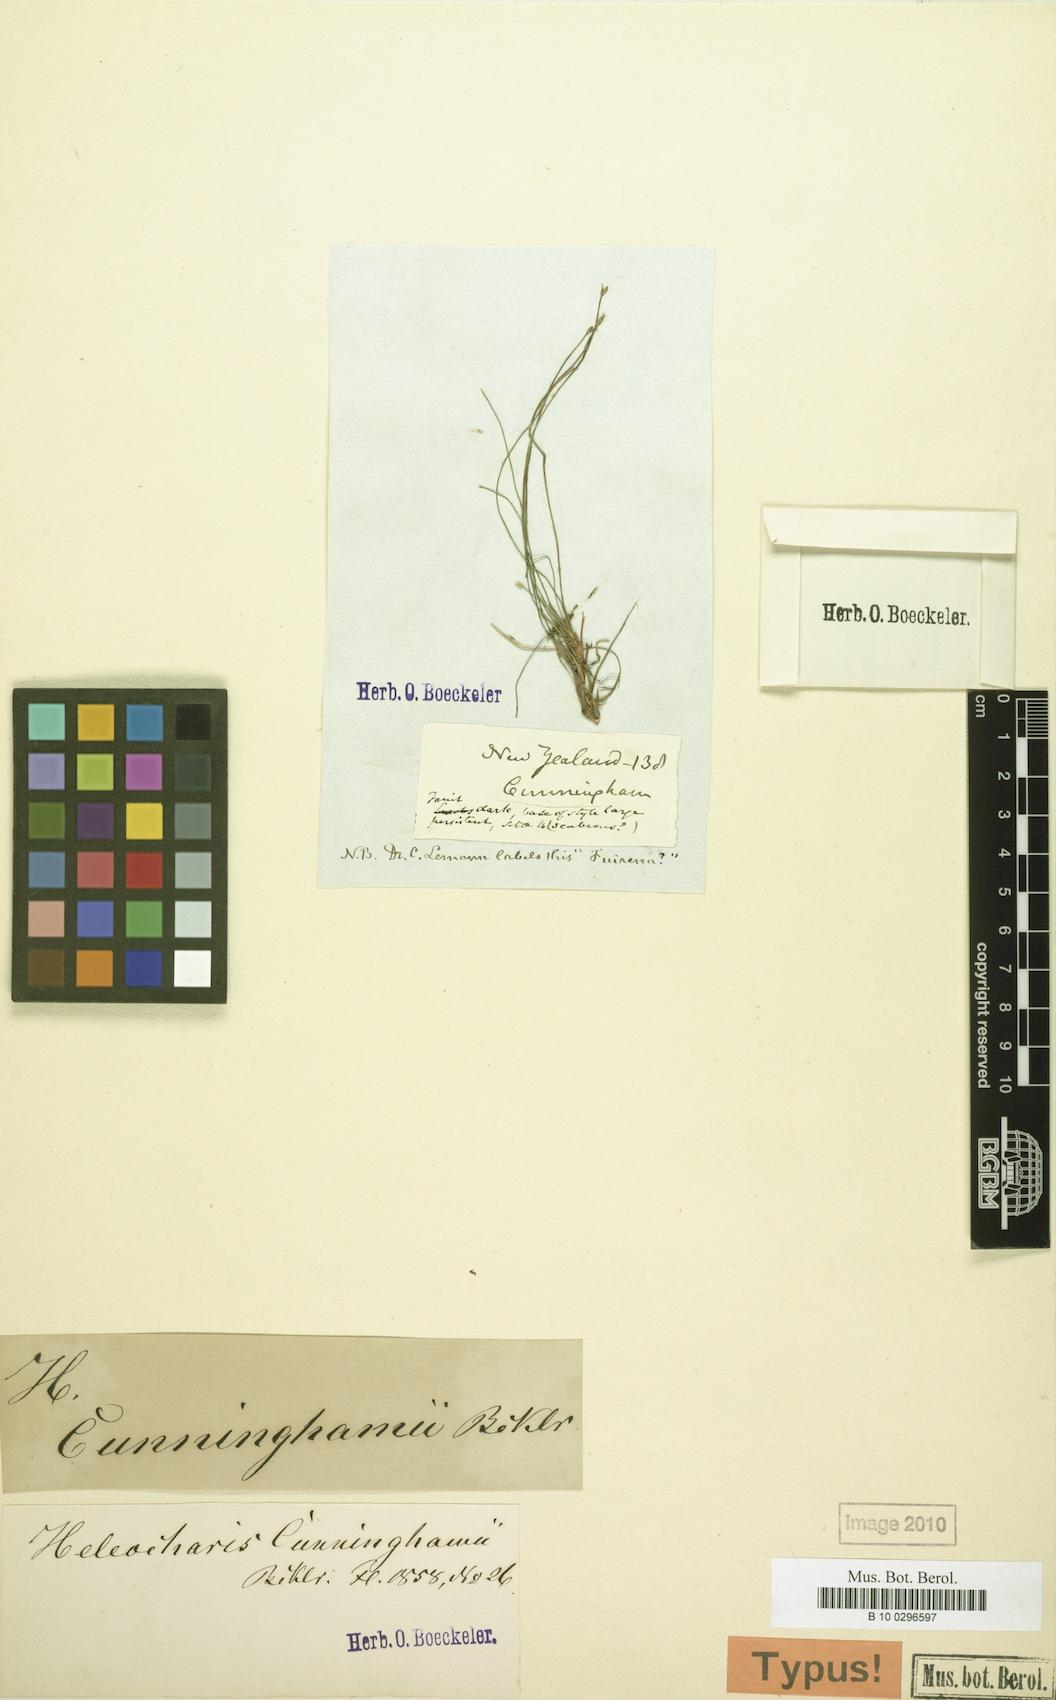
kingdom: Plantae
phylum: Tracheophyta
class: Liliopsida
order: Poales
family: Cyperaceae
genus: Eleocharis
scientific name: Eleocharis gracilis
